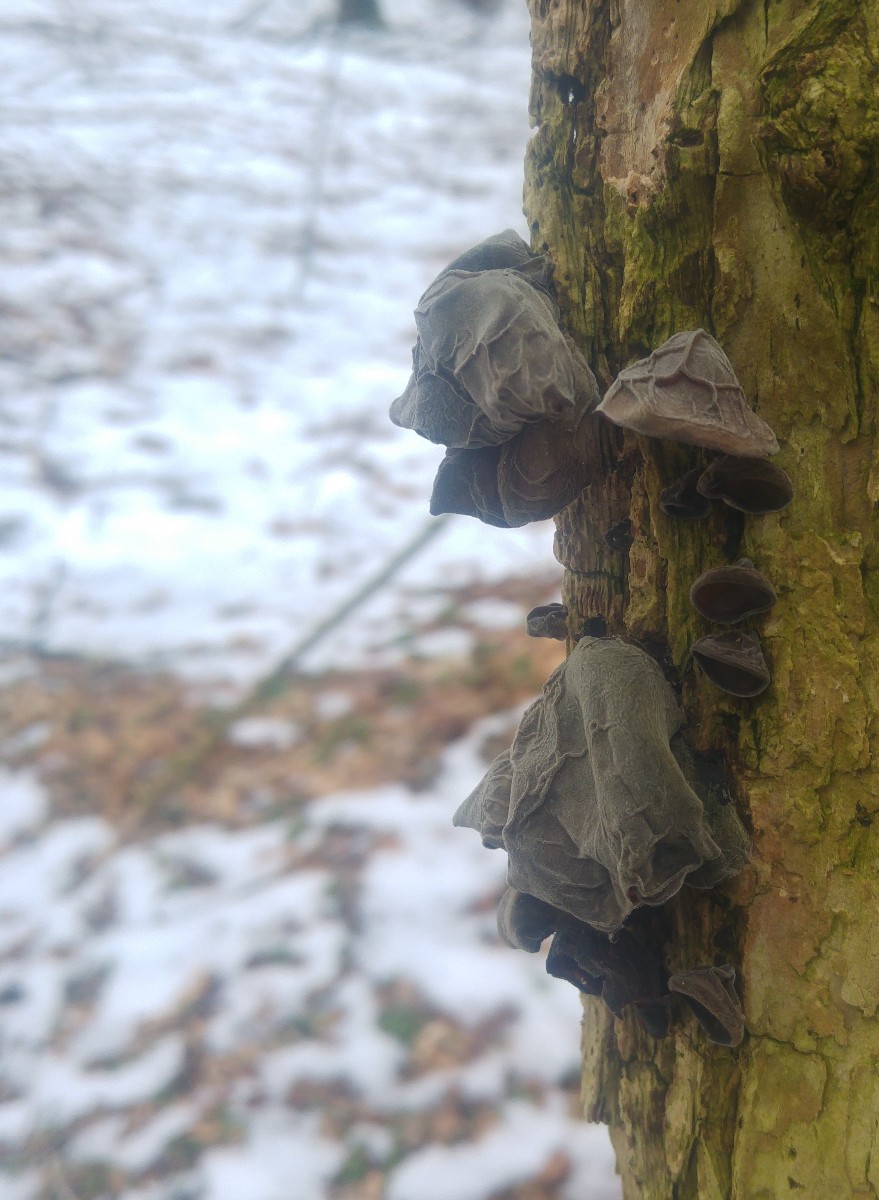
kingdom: Fungi
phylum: Basidiomycota
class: Agaricomycetes
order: Auriculariales
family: Auriculariaceae
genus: Auricularia
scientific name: Auricularia auricula-judae
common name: almindelig judasøre
